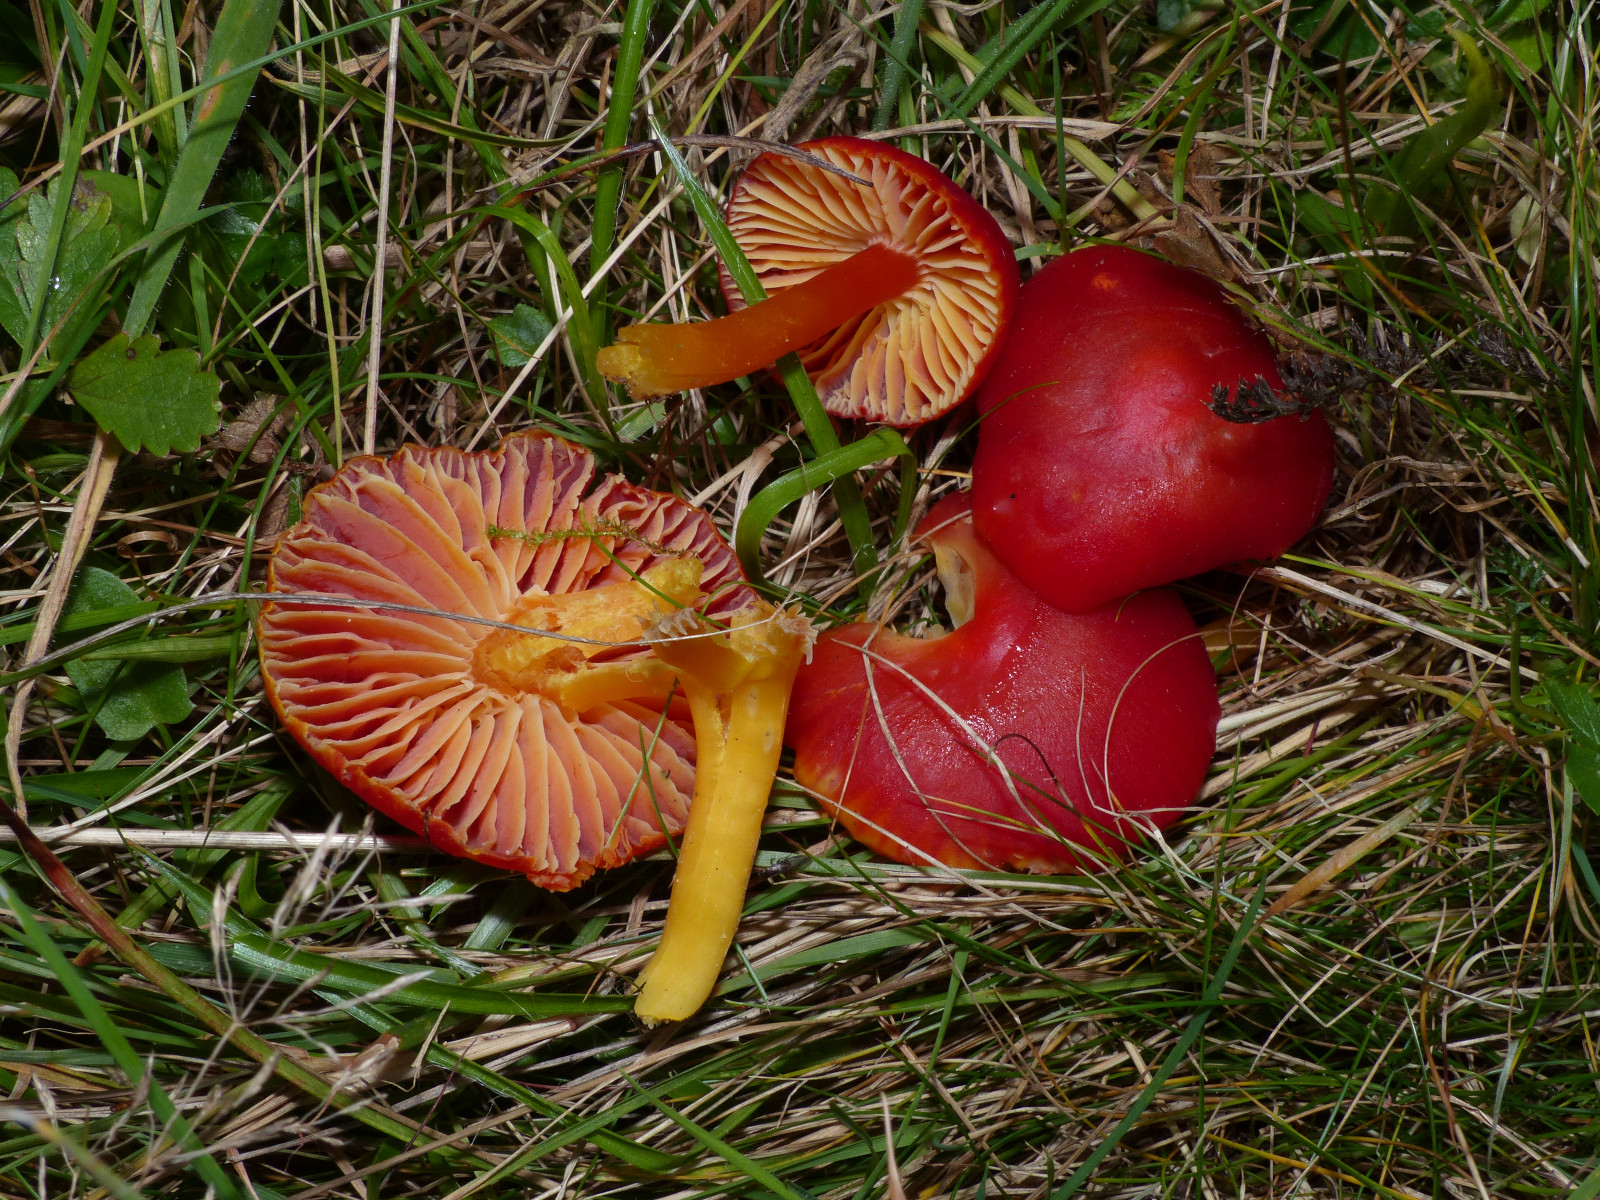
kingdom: Fungi
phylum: Basidiomycota
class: Agaricomycetes
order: Agaricales
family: Hygrophoraceae
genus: Hygrocybe
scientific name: Hygrocybe coccinea
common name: cinnober-vokshat
